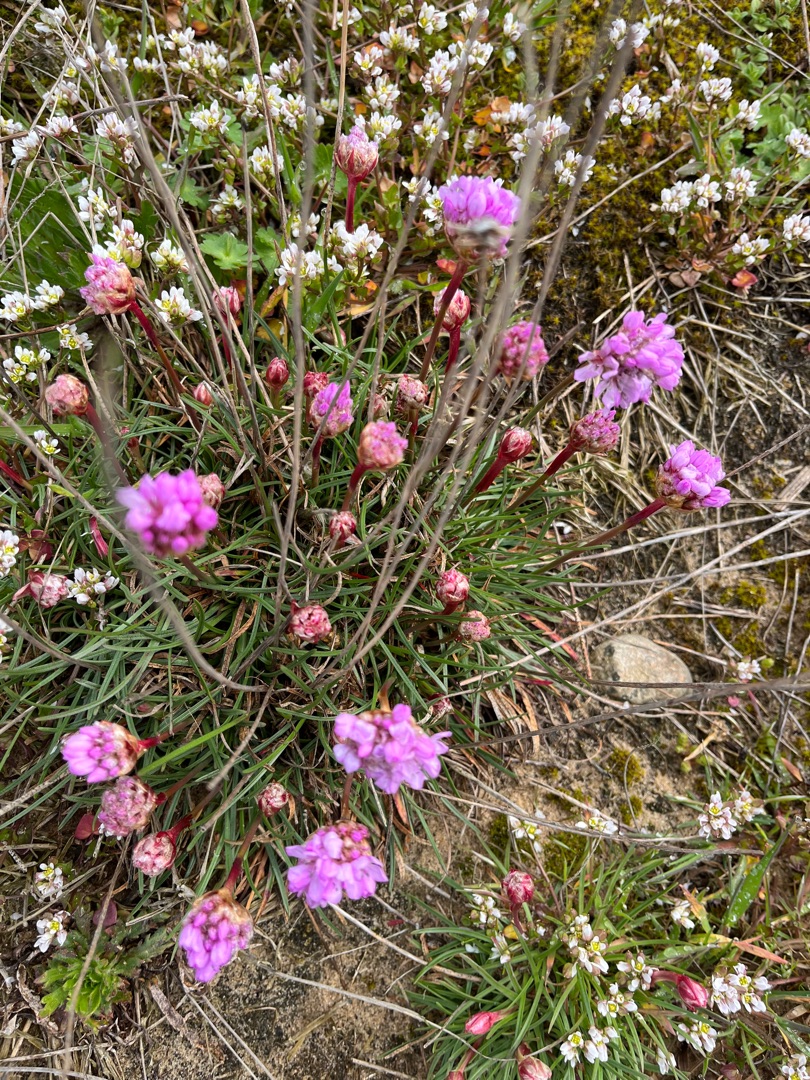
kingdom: Plantae
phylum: Tracheophyta
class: Magnoliopsida
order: Caryophyllales
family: Plumbaginaceae
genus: Armeria
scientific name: Armeria maritima
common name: Engelskgræs
